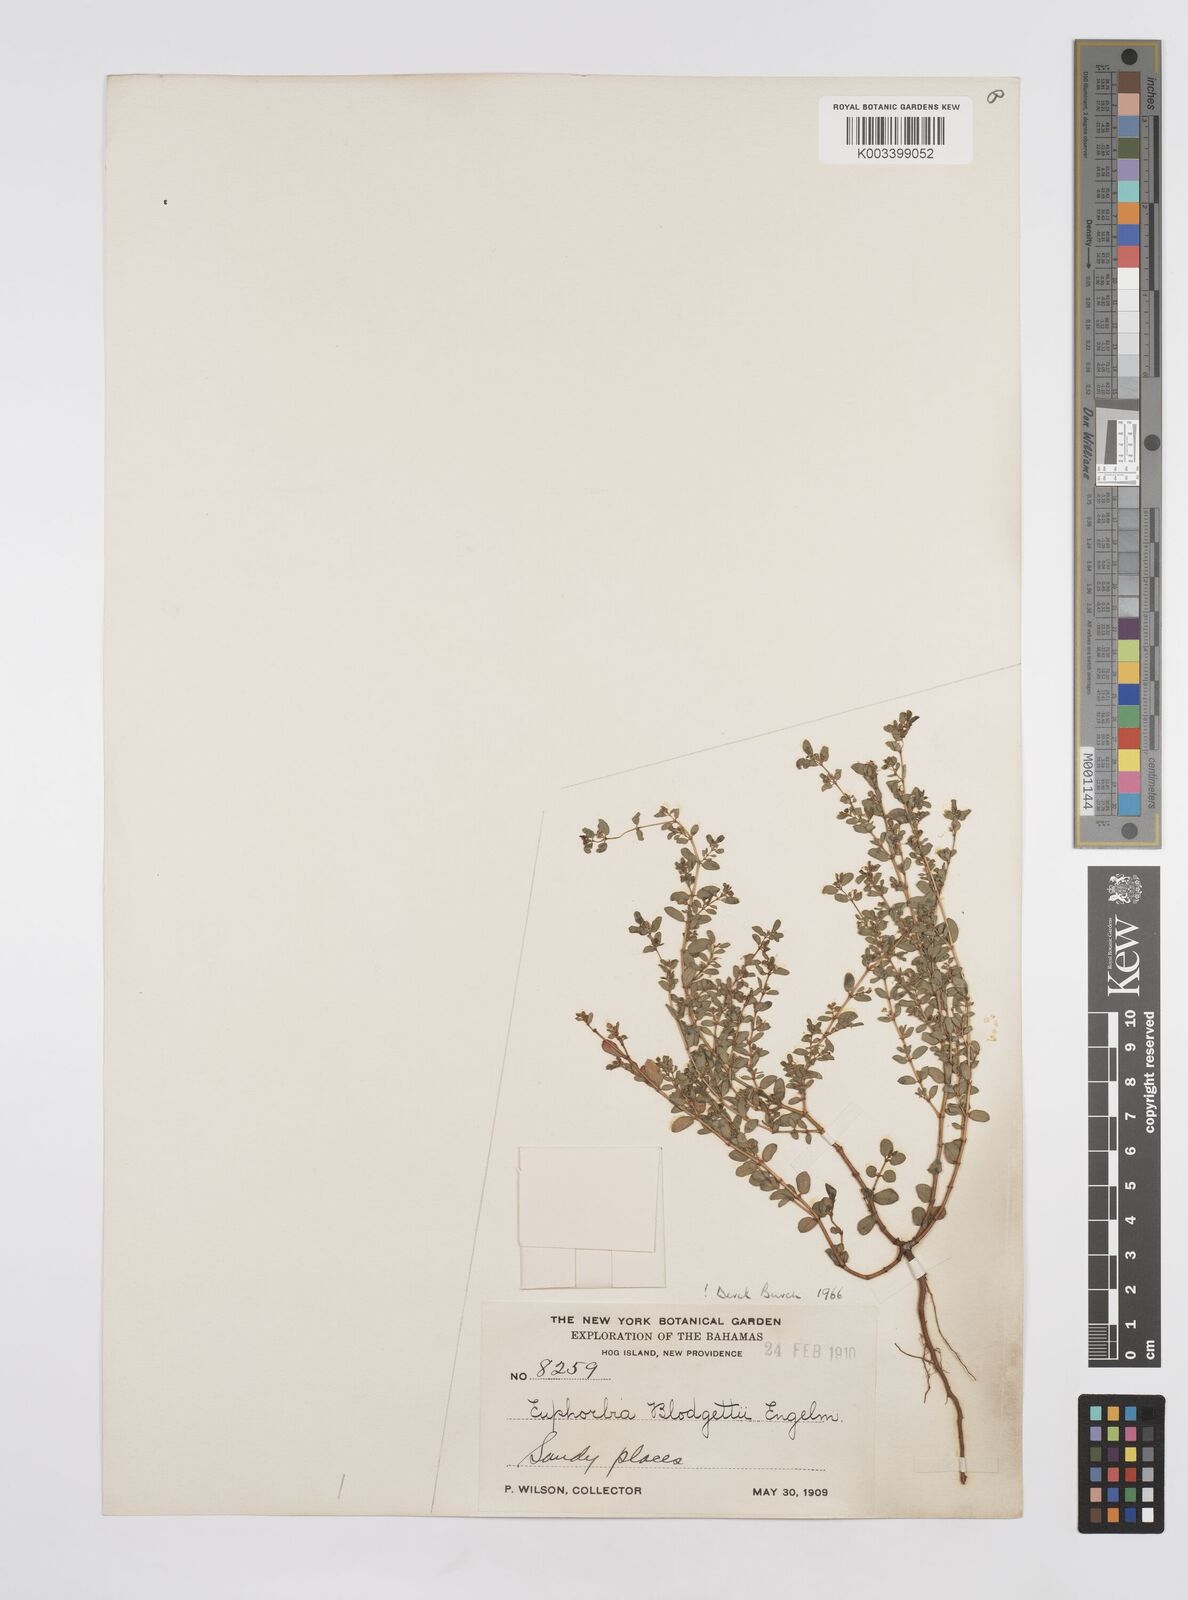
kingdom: Plantae
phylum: Tracheophyta
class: Magnoliopsida
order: Malpighiales
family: Euphorbiaceae
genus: Euphorbia
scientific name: Euphorbia blodgettii
